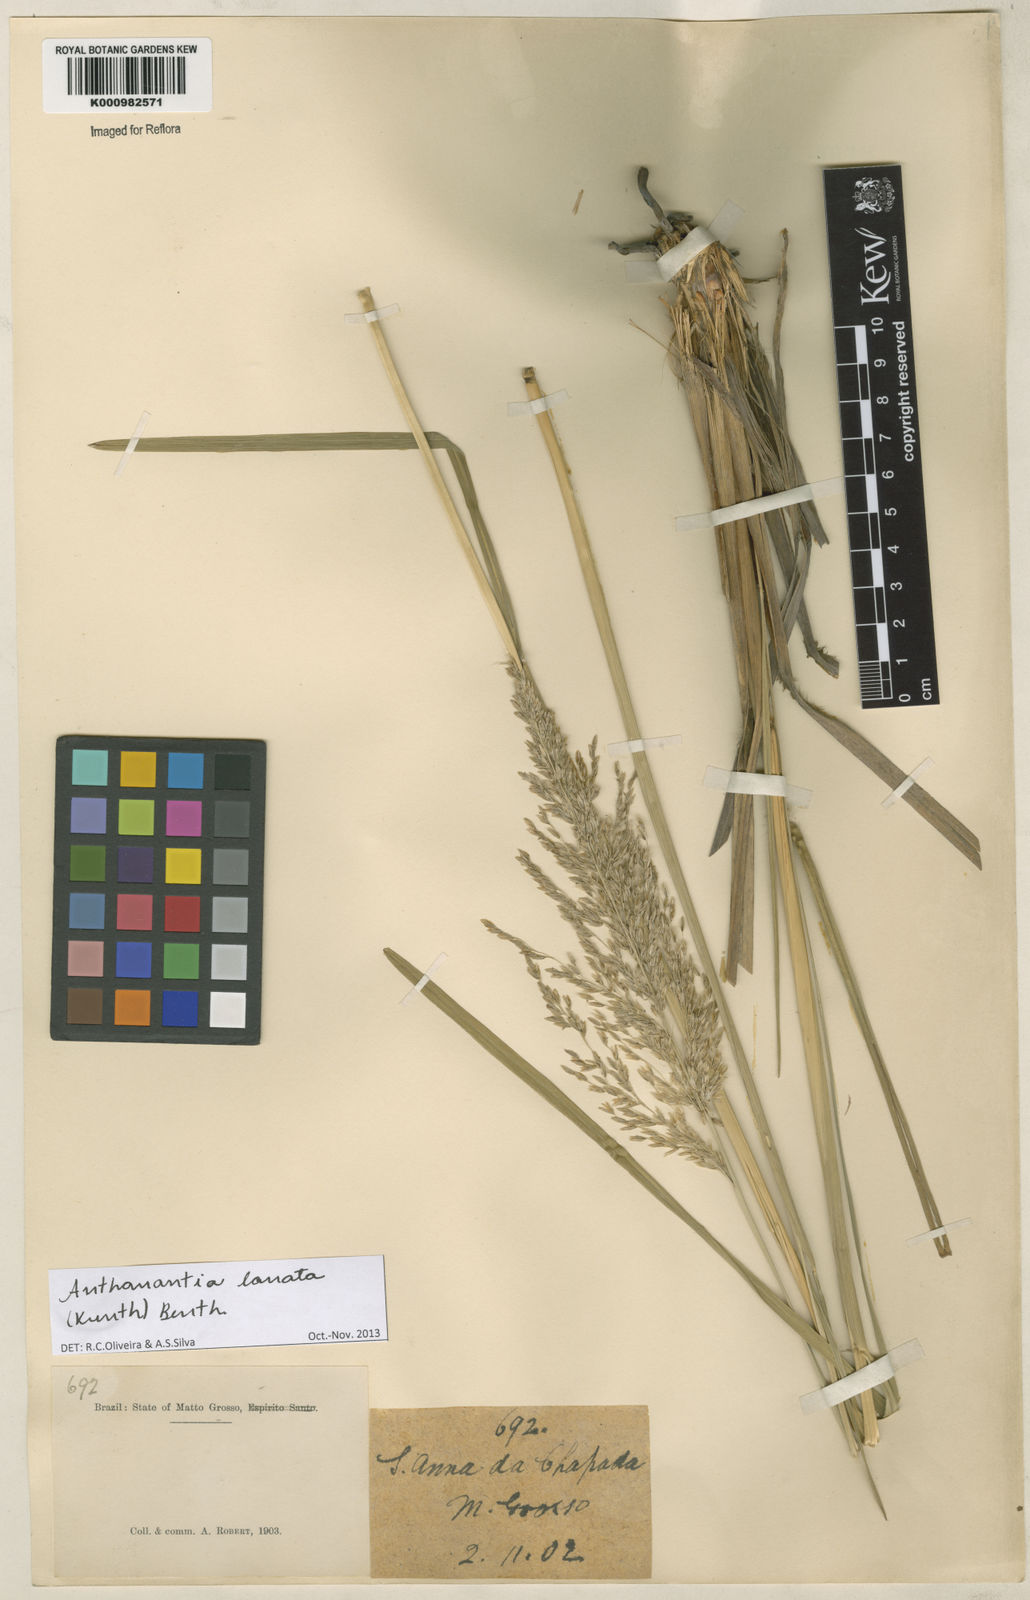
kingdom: Plantae
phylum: Tracheophyta
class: Liliopsida
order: Poales
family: Poaceae
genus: Anthenantia
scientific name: Anthenantia lanata
